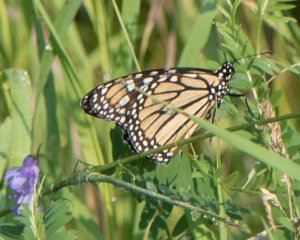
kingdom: Animalia
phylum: Arthropoda
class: Insecta
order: Lepidoptera
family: Nymphalidae
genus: Danaus
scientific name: Danaus plexippus
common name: Monarch
